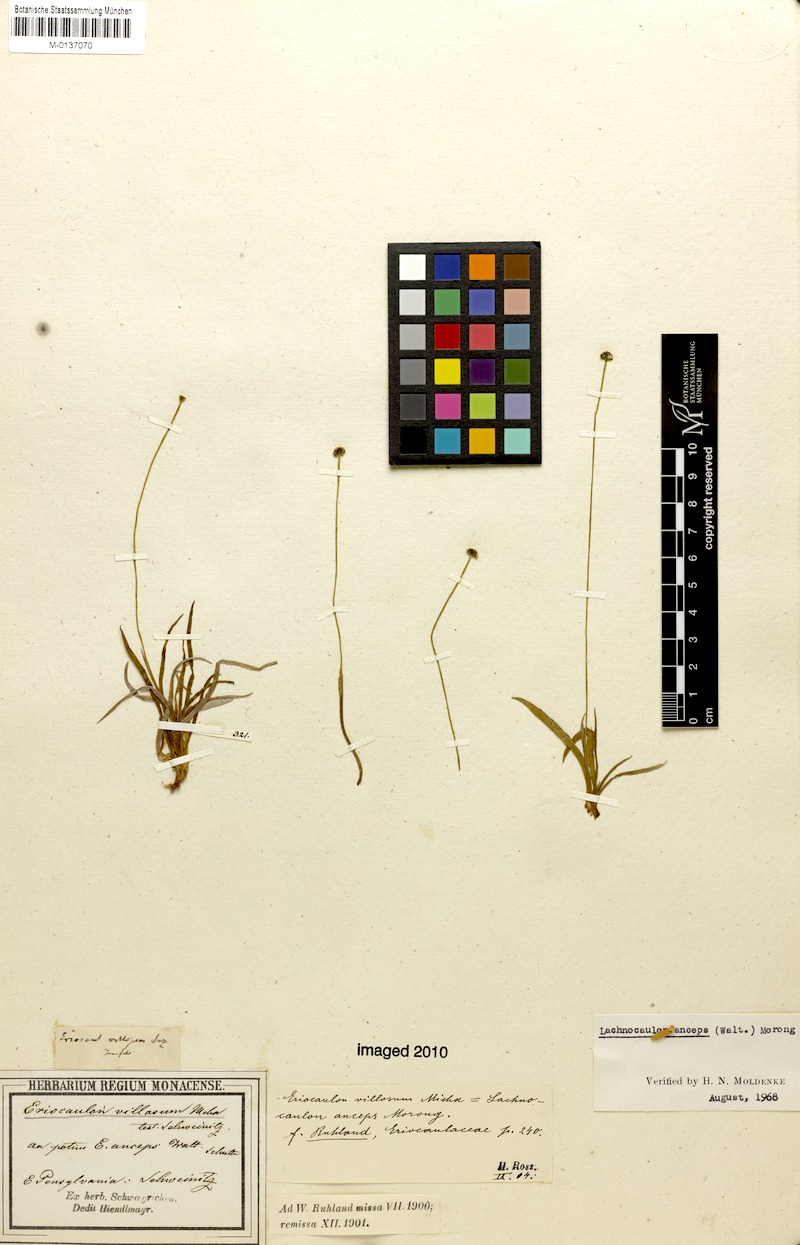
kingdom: Plantae
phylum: Tracheophyta
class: Liliopsida
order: Poales
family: Eriocaulaceae
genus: Paepalanthus
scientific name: Paepalanthus anceps
